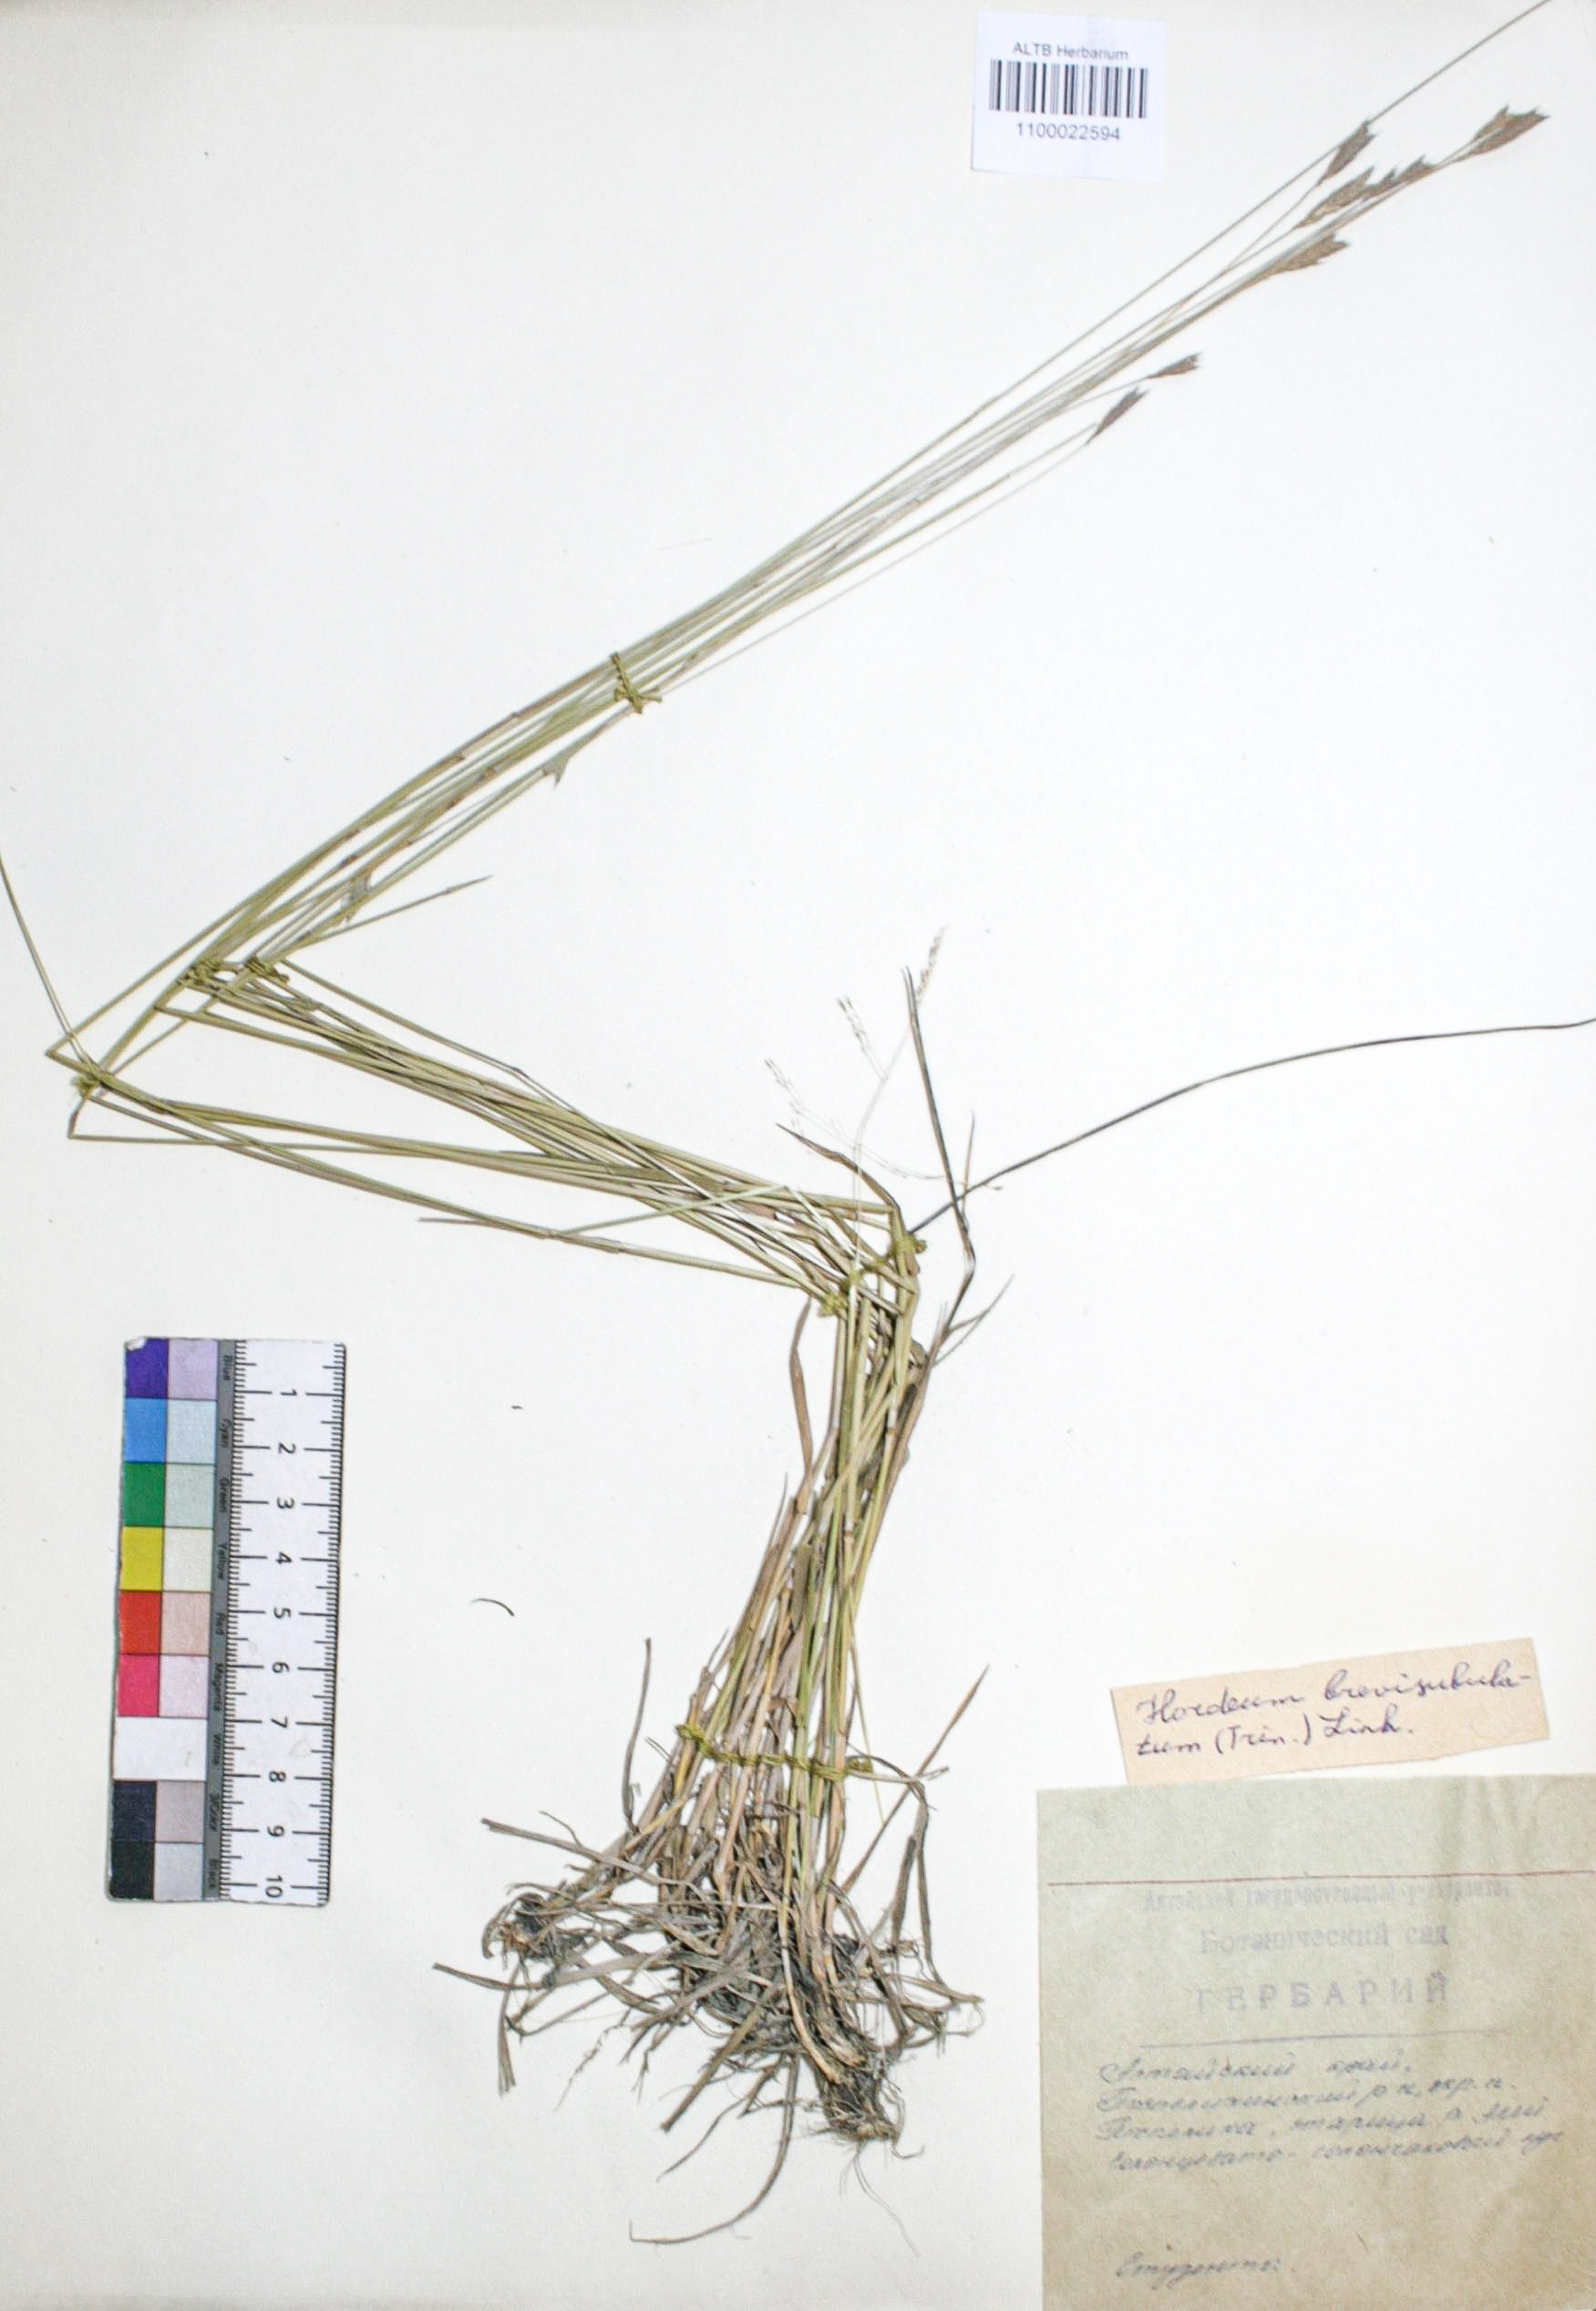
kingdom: Plantae
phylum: Tracheophyta
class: Liliopsida
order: Poales
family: Poaceae
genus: Hordeum
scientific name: Hordeum brevisubulatum
